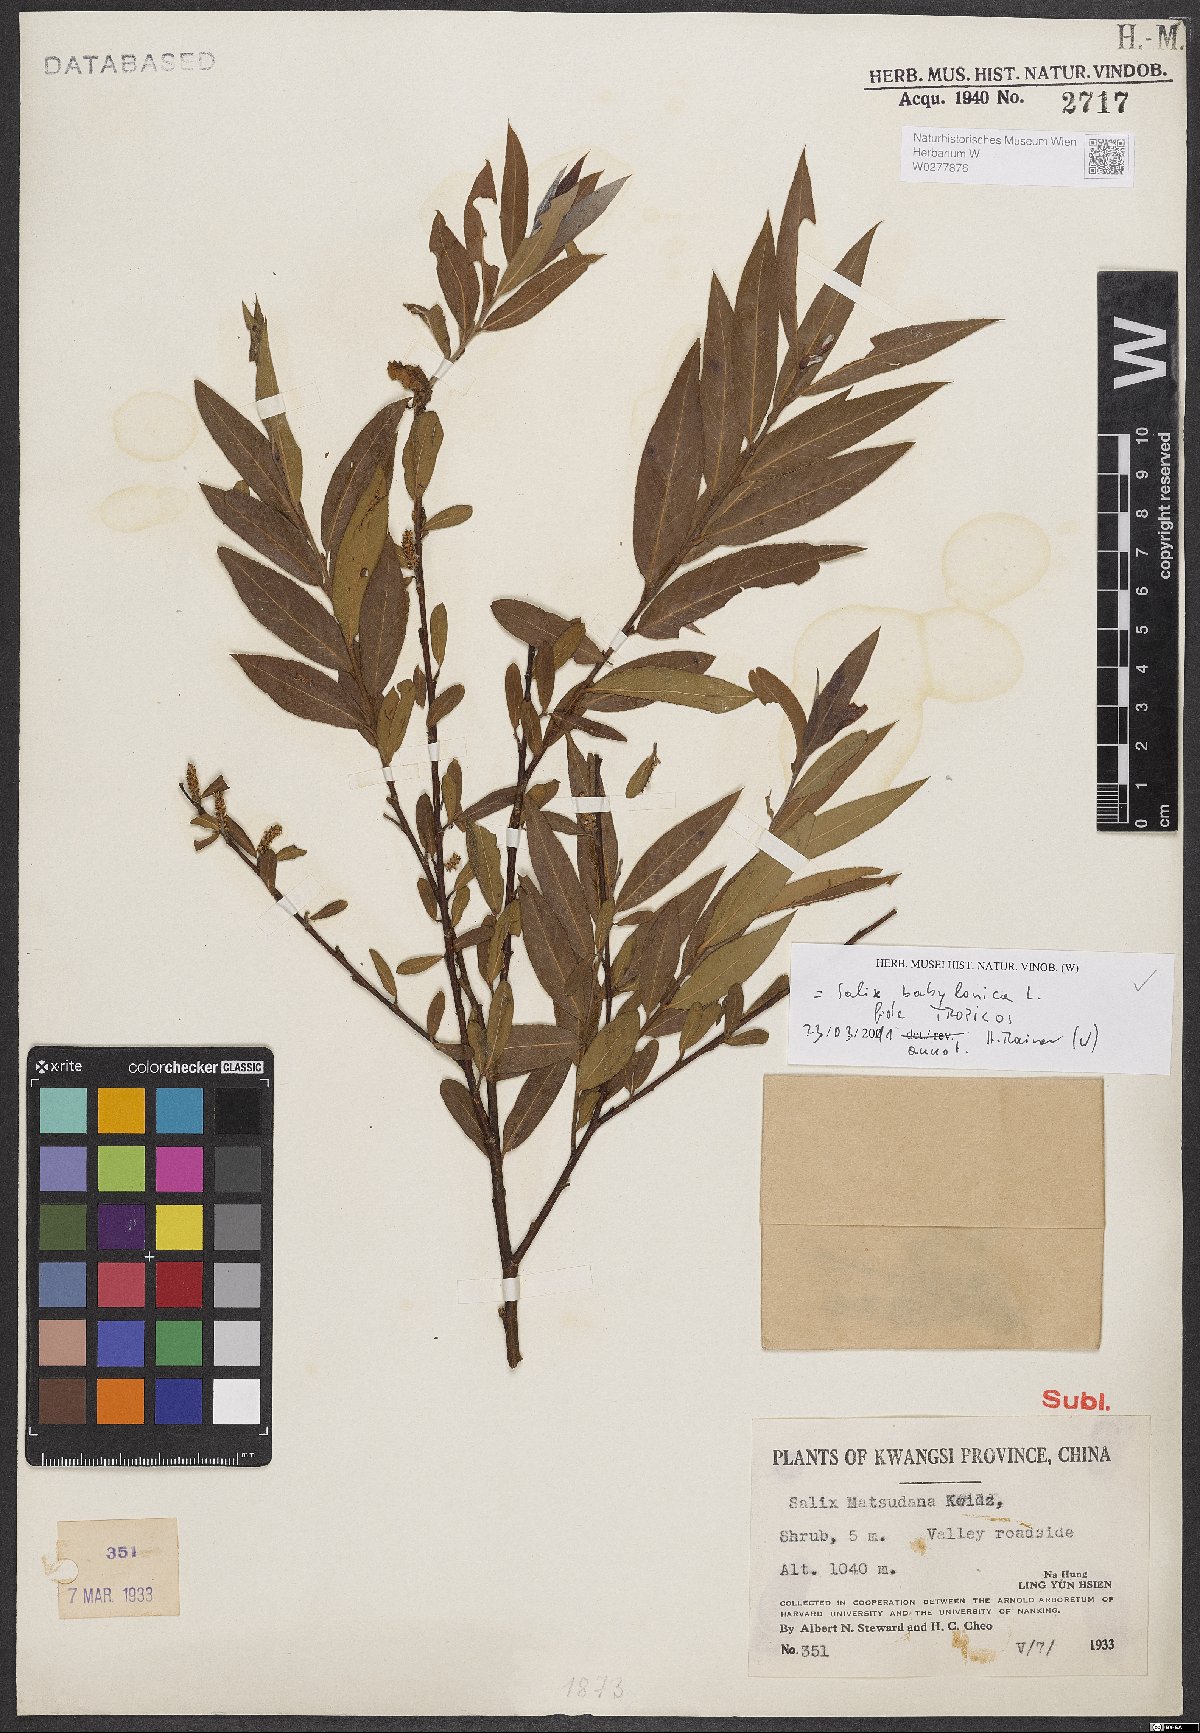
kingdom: Plantae
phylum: Tracheophyta
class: Magnoliopsida
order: Malpighiales
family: Salicaceae
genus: Salix
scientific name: Salix babylonica
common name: Weeping willow
